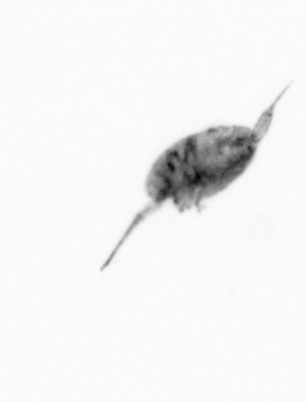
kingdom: Animalia
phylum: Arthropoda
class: Copepoda
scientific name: Copepoda
